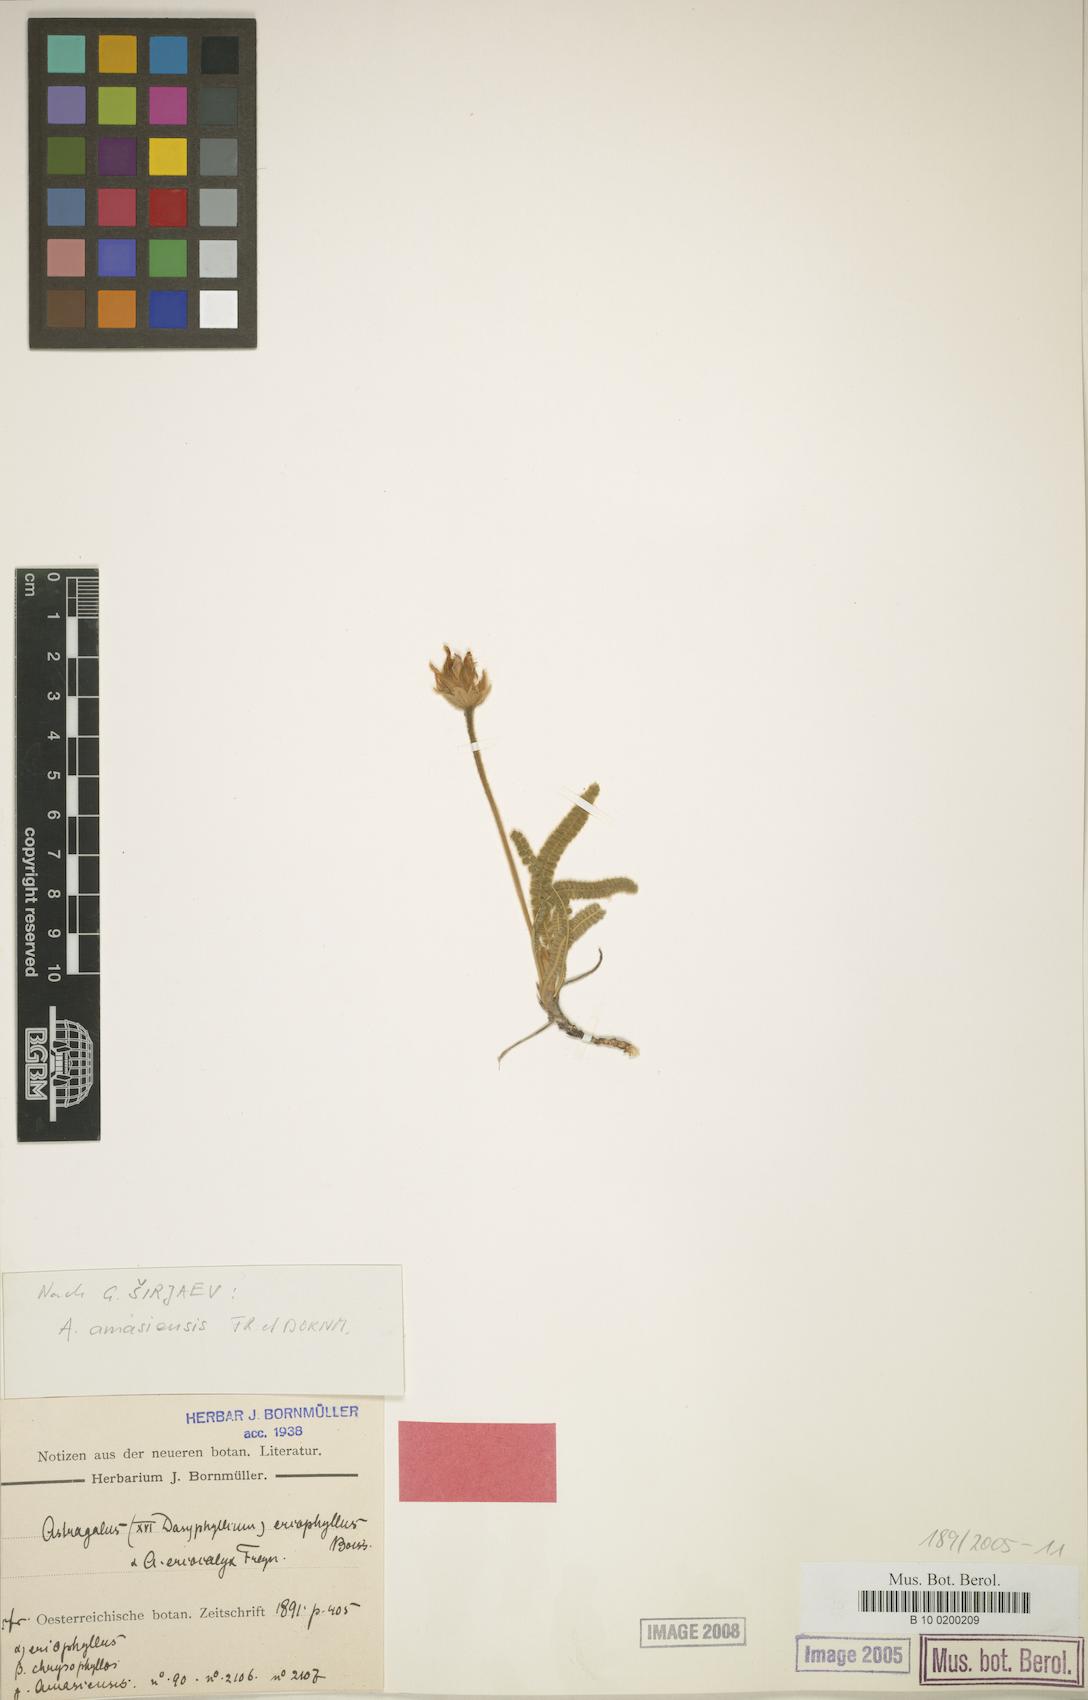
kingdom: Plantae
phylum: Tracheophyta
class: Magnoliopsida
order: Fabales
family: Fabaceae
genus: Astragalus
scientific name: Astragalus densifolius
